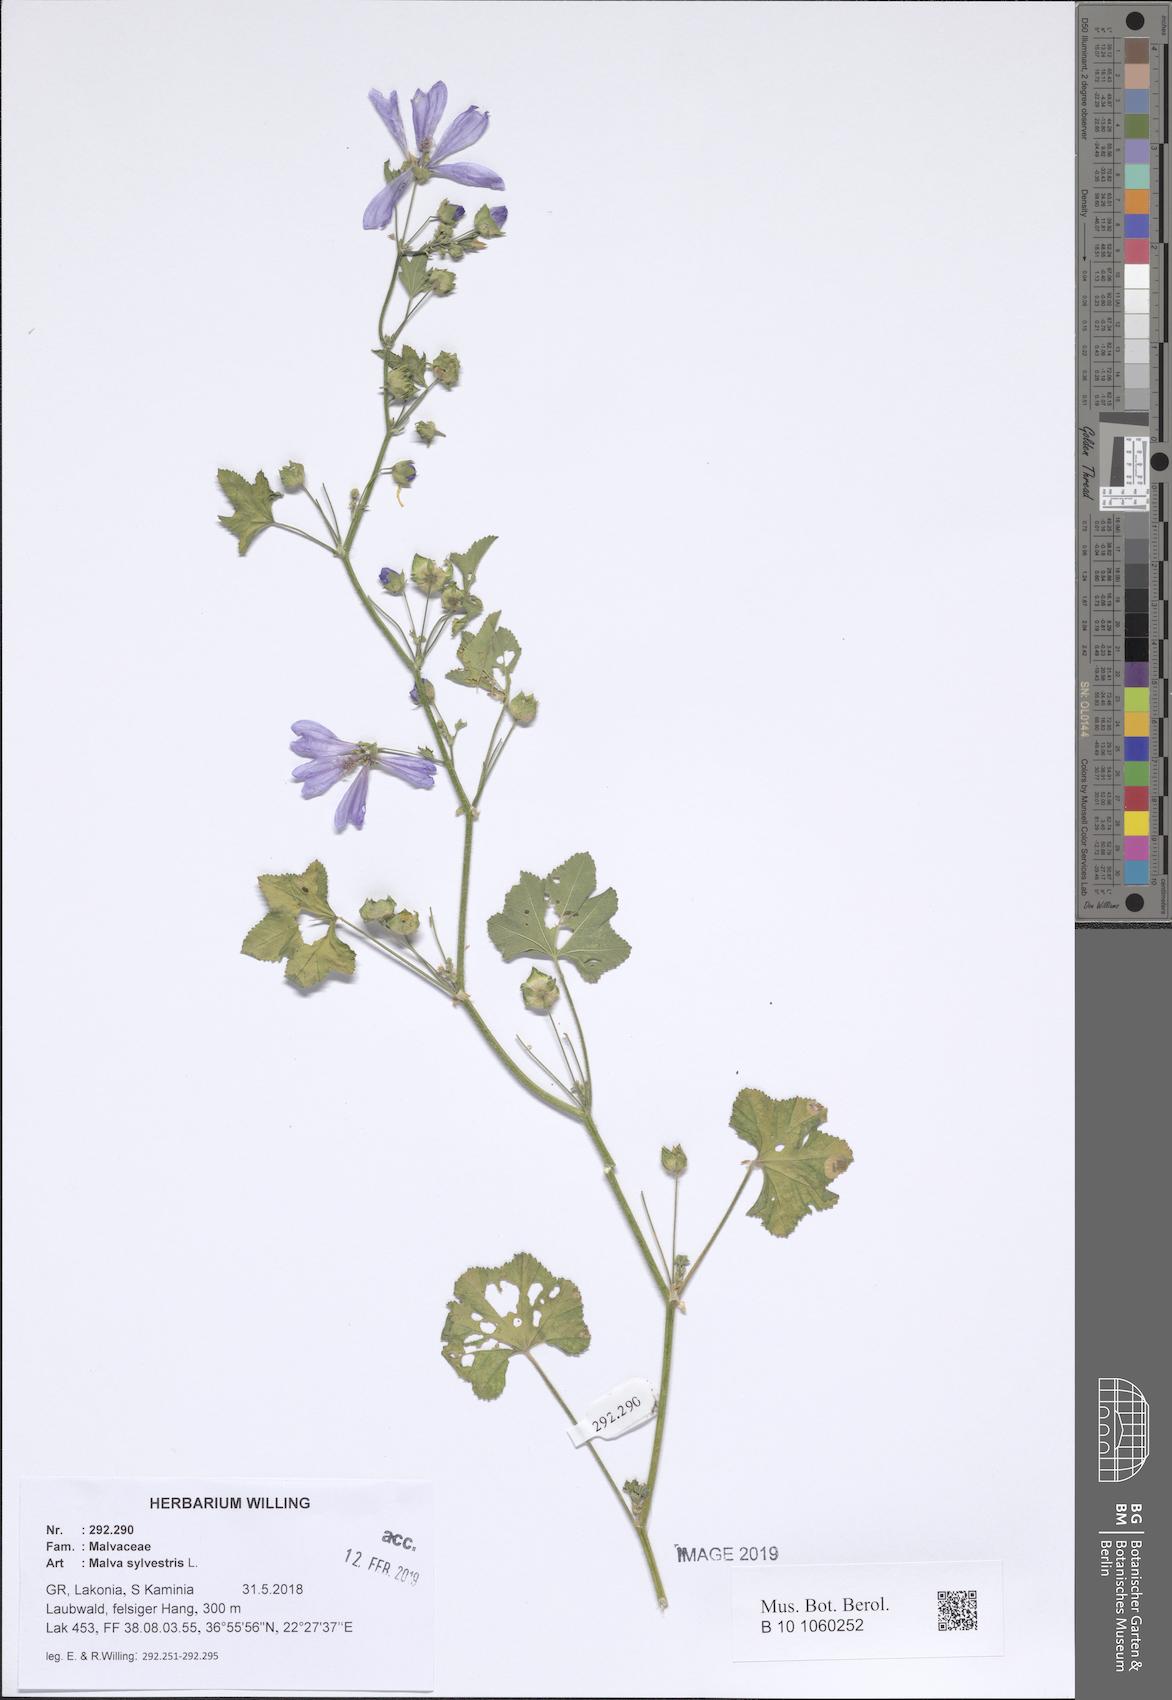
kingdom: Plantae
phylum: Tracheophyta
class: Magnoliopsida
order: Malvales
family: Malvaceae
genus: Malva
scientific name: Malva sylvestris
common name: Common mallow
